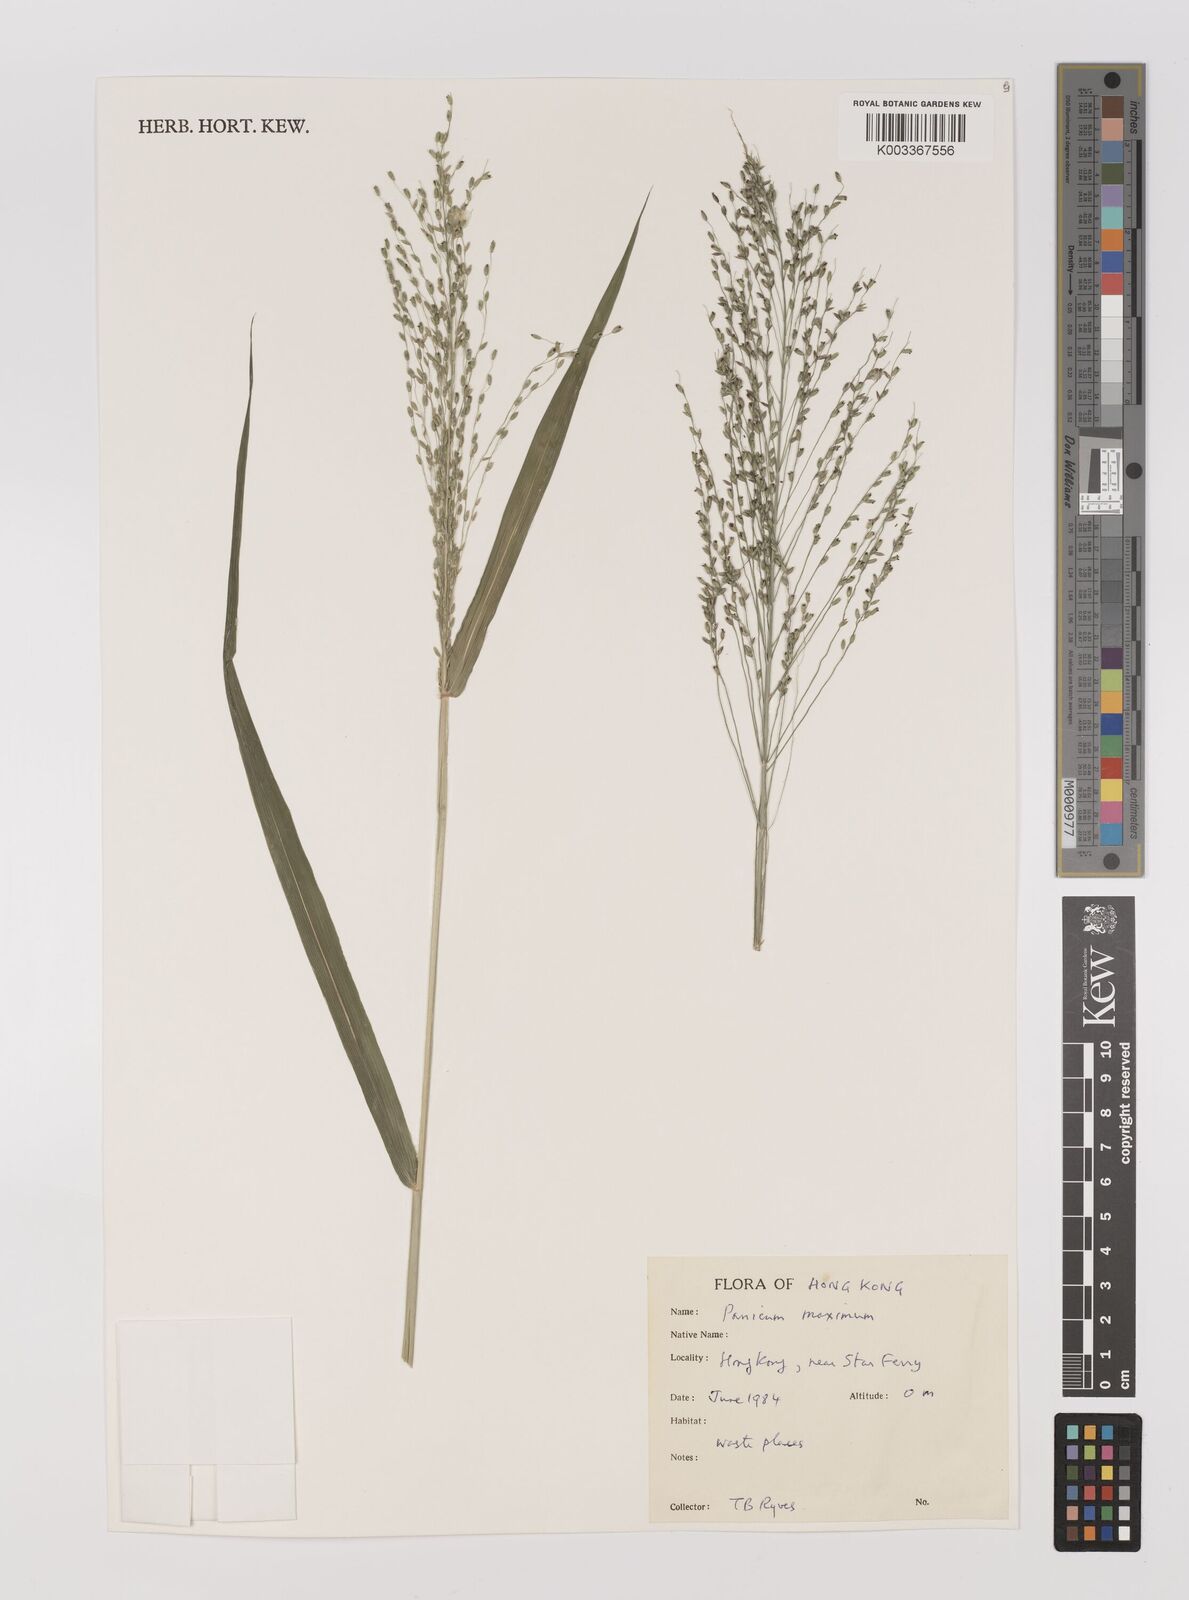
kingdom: Plantae
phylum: Tracheophyta
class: Liliopsida
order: Poales
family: Poaceae
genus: Megathyrsus
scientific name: Megathyrsus maximus
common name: Guineagrass
